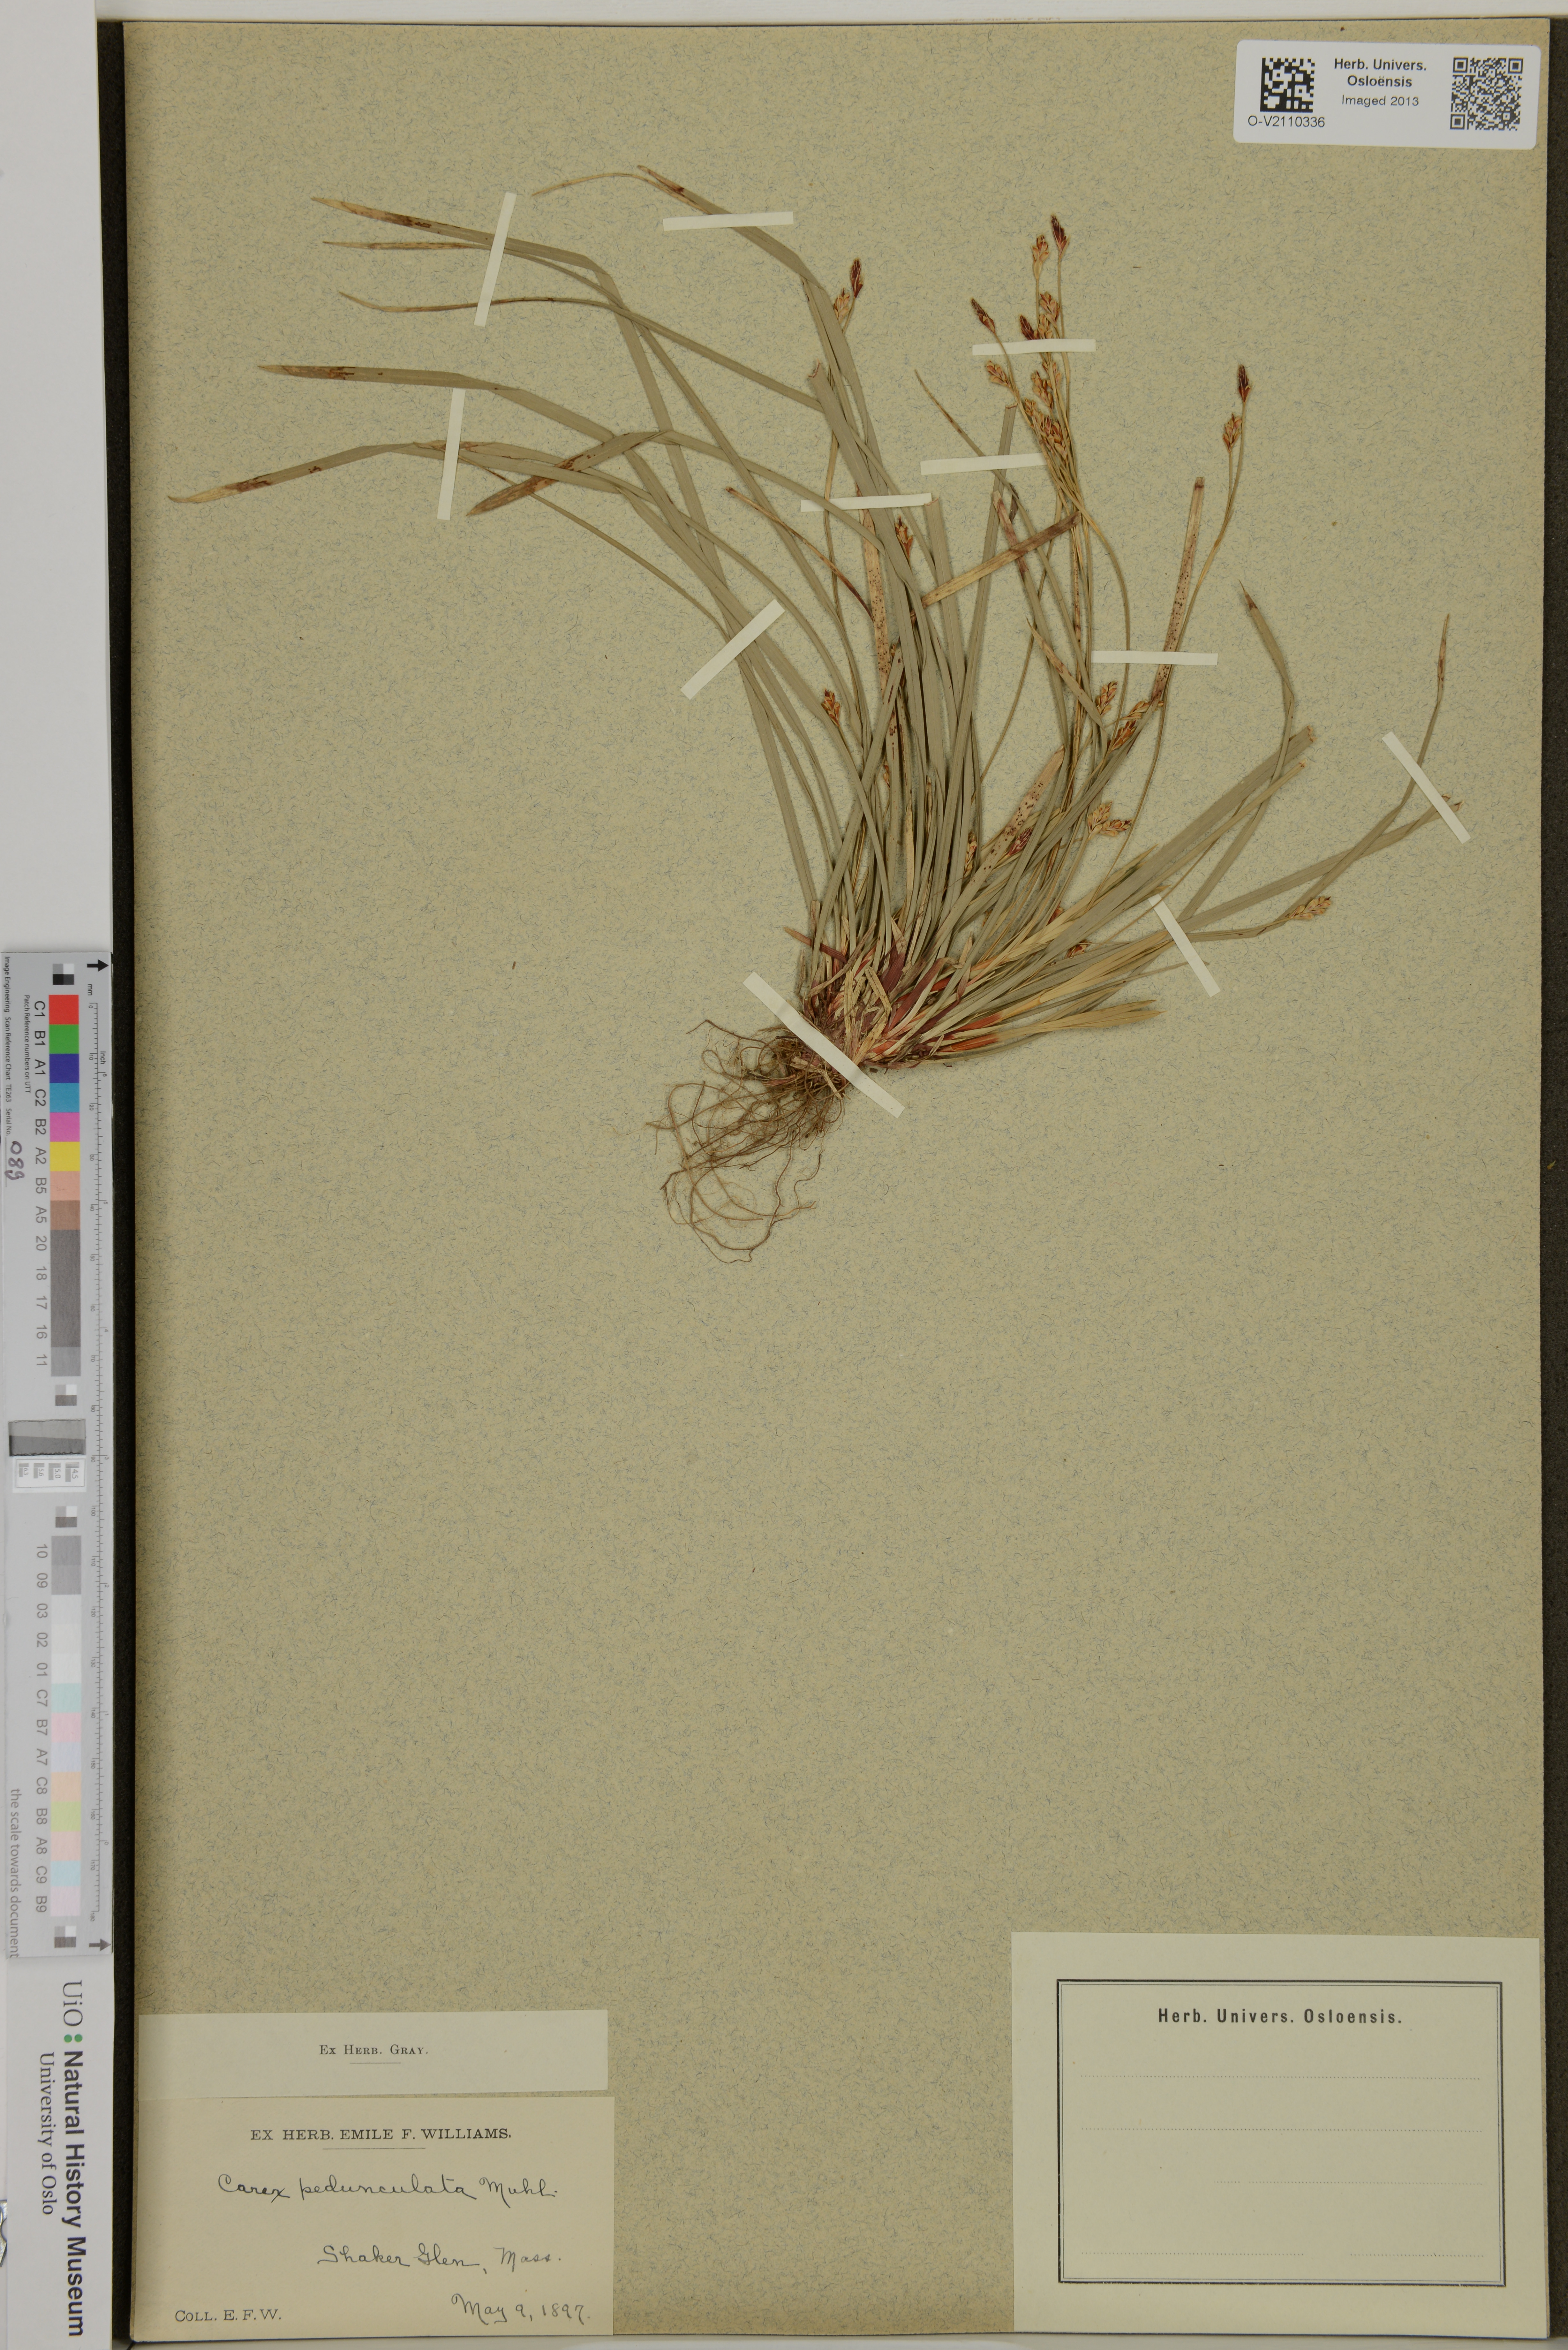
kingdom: Plantae
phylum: Tracheophyta
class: Liliopsida
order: Poales
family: Cyperaceae
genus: Carex
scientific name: Carex pedunculata
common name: Pedunculate sedge
